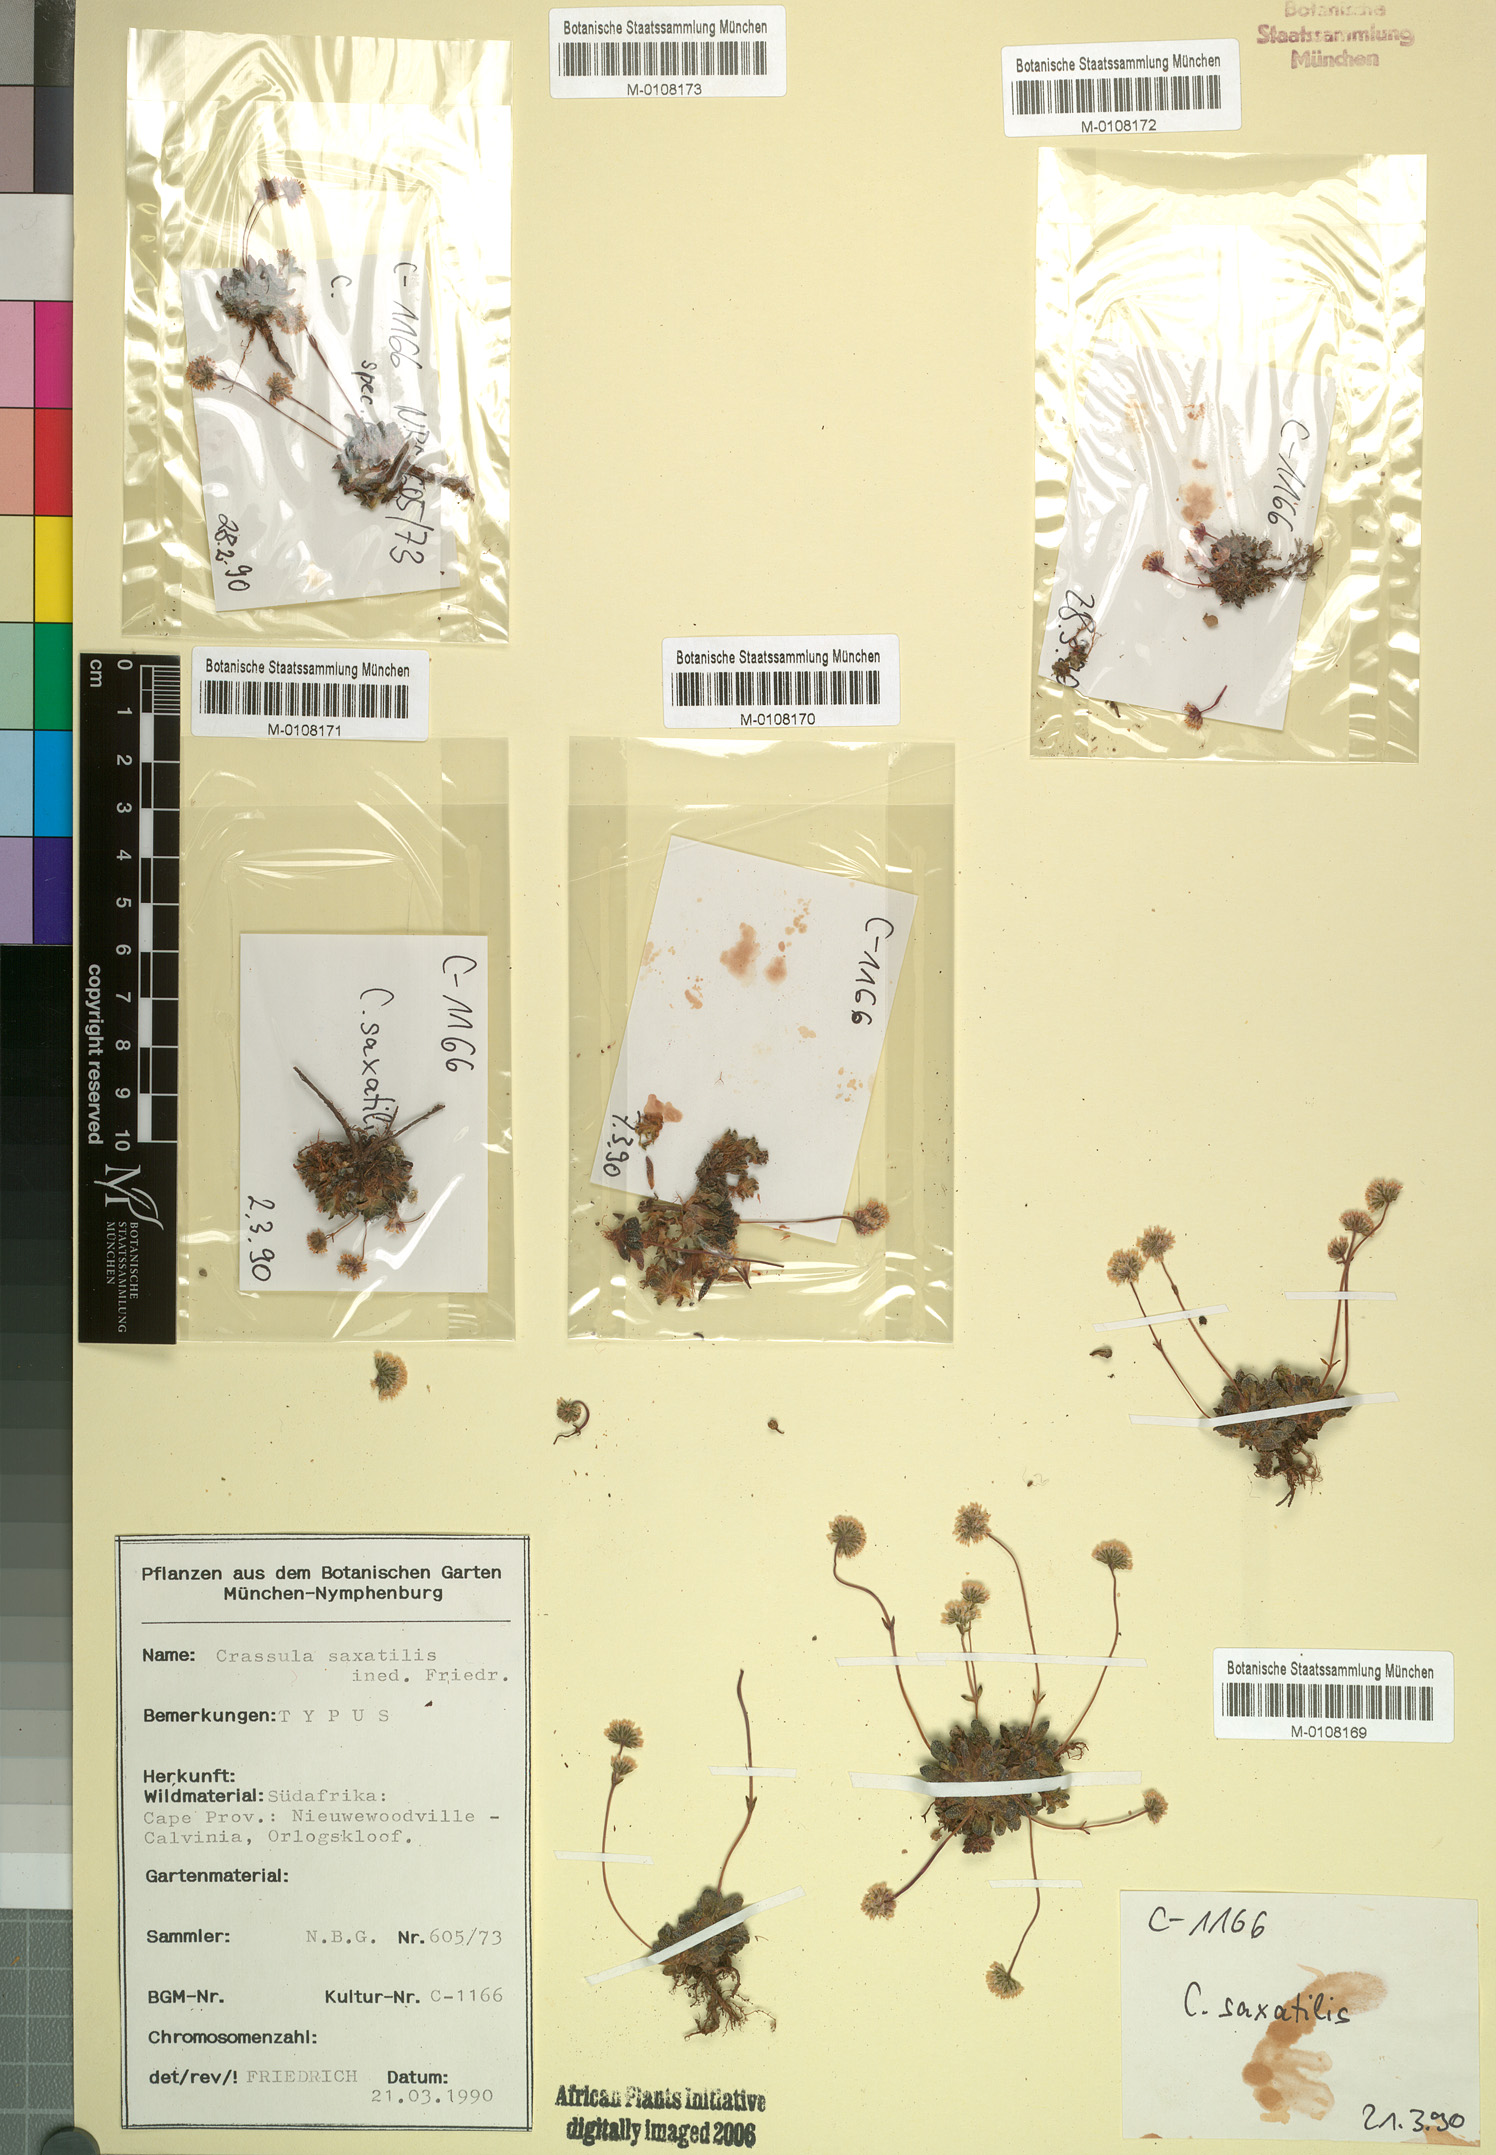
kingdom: Plantae
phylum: Tracheophyta
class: Magnoliopsida
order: Saxifragales
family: Crassulaceae
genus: Crassula
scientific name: Crassula
